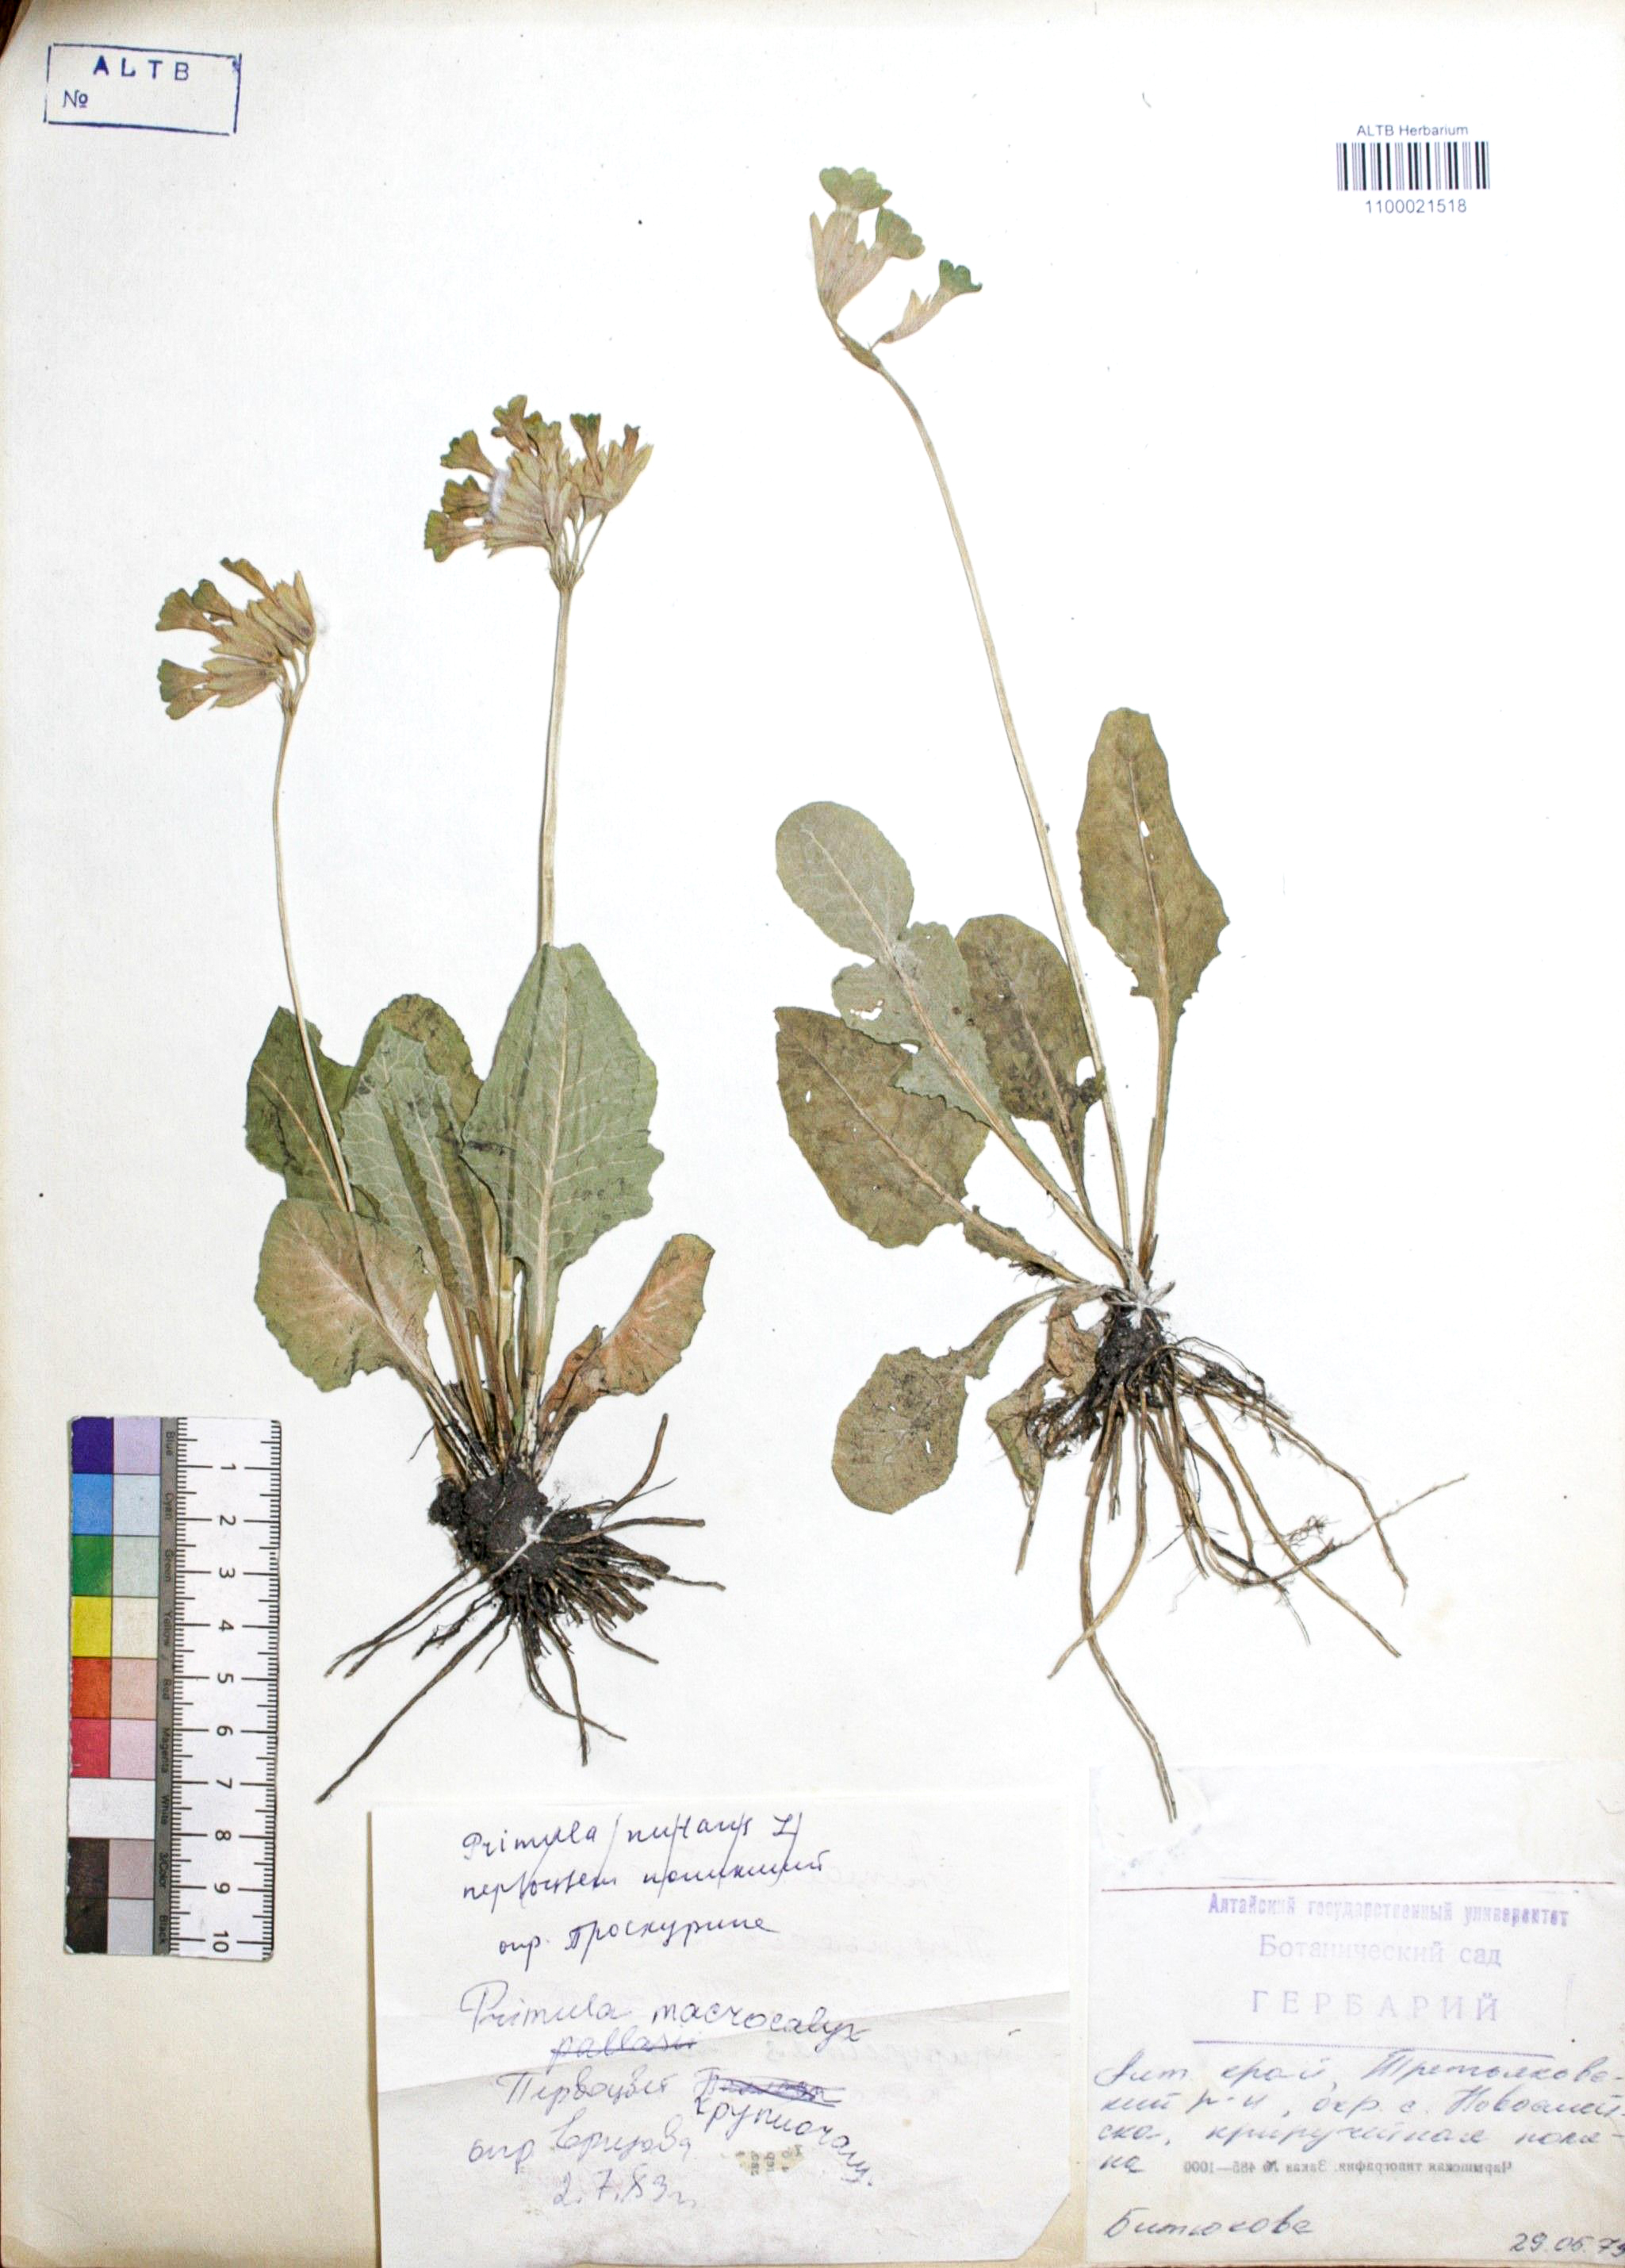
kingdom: Plantae
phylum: Tracheophyta
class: Magnoliopsida
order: Ericales
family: Primulaceae
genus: Primula
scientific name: Primula nutans
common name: Siberian primrose
